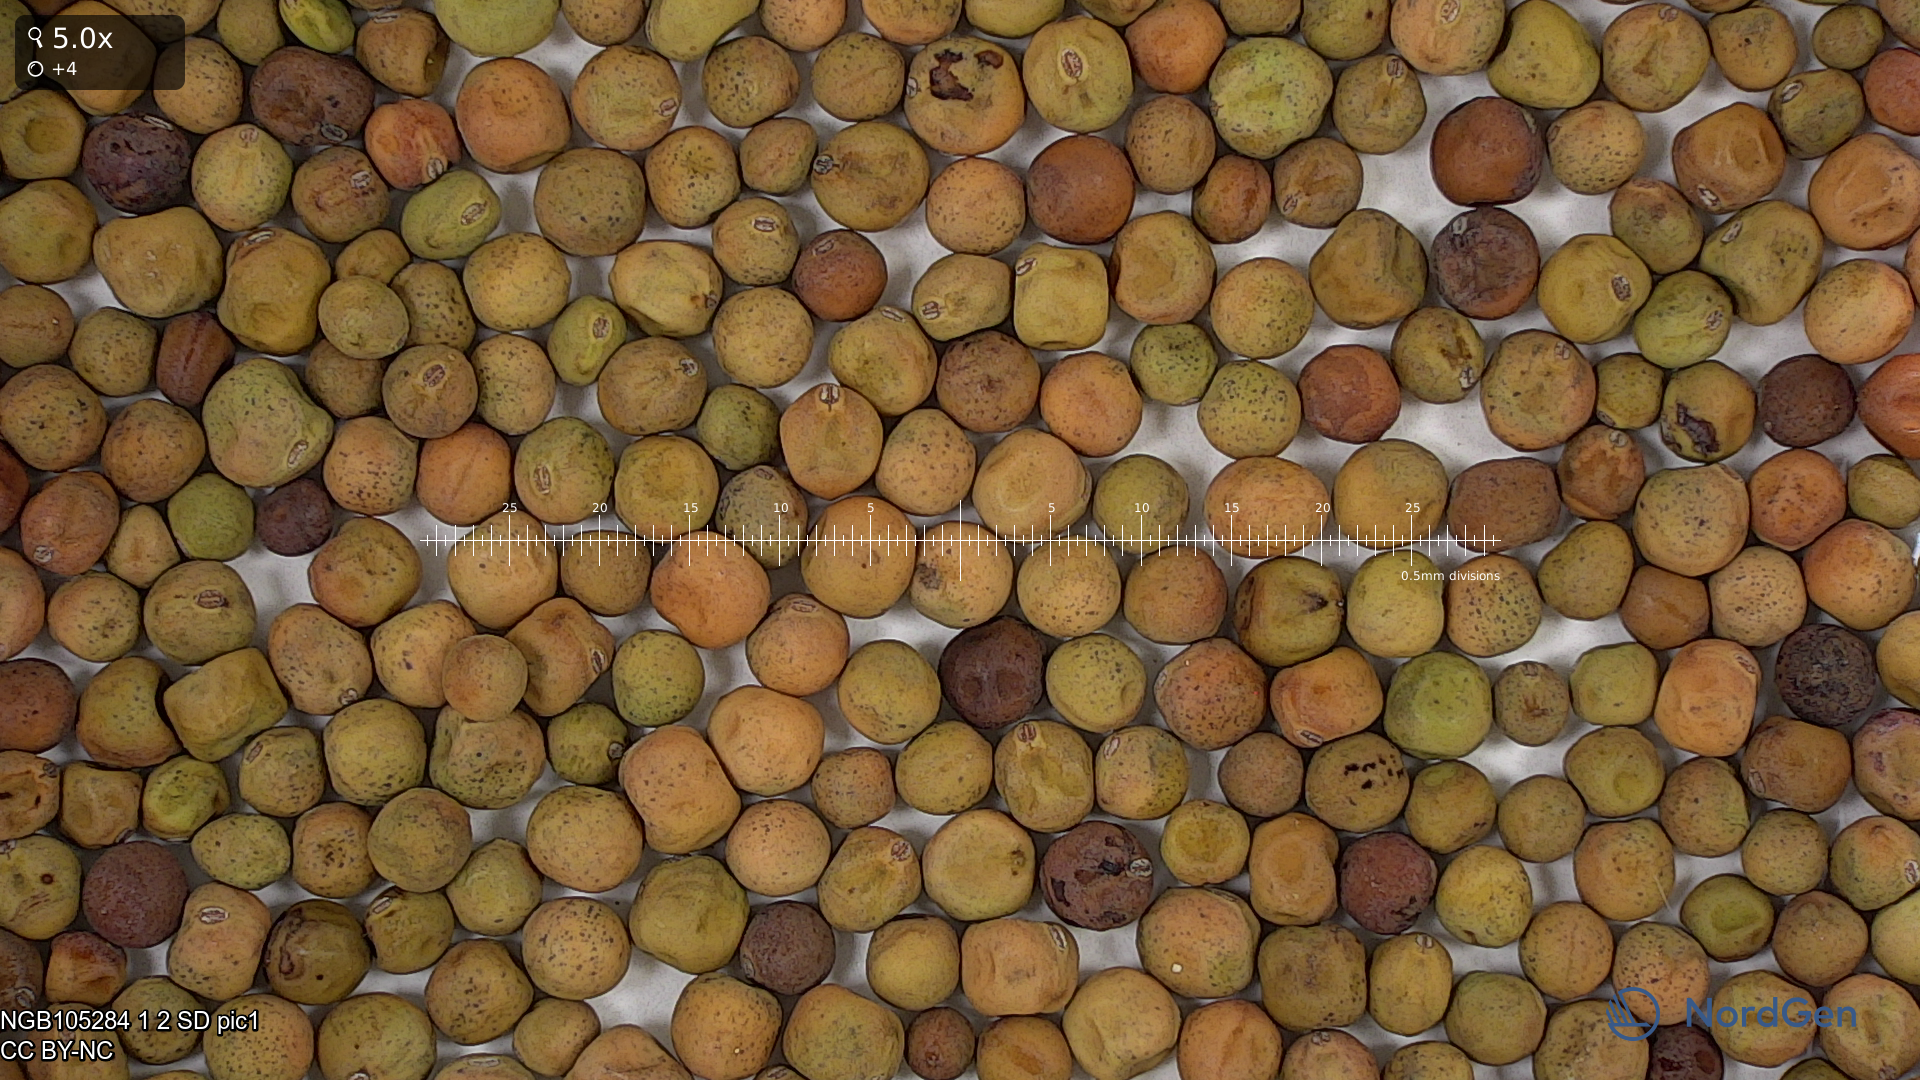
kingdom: Plantae
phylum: Tracheophyta
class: Magnoliopsida
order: Fabales
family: Fabaceae
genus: Lathyrus
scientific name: Lathyrus oleraceus
